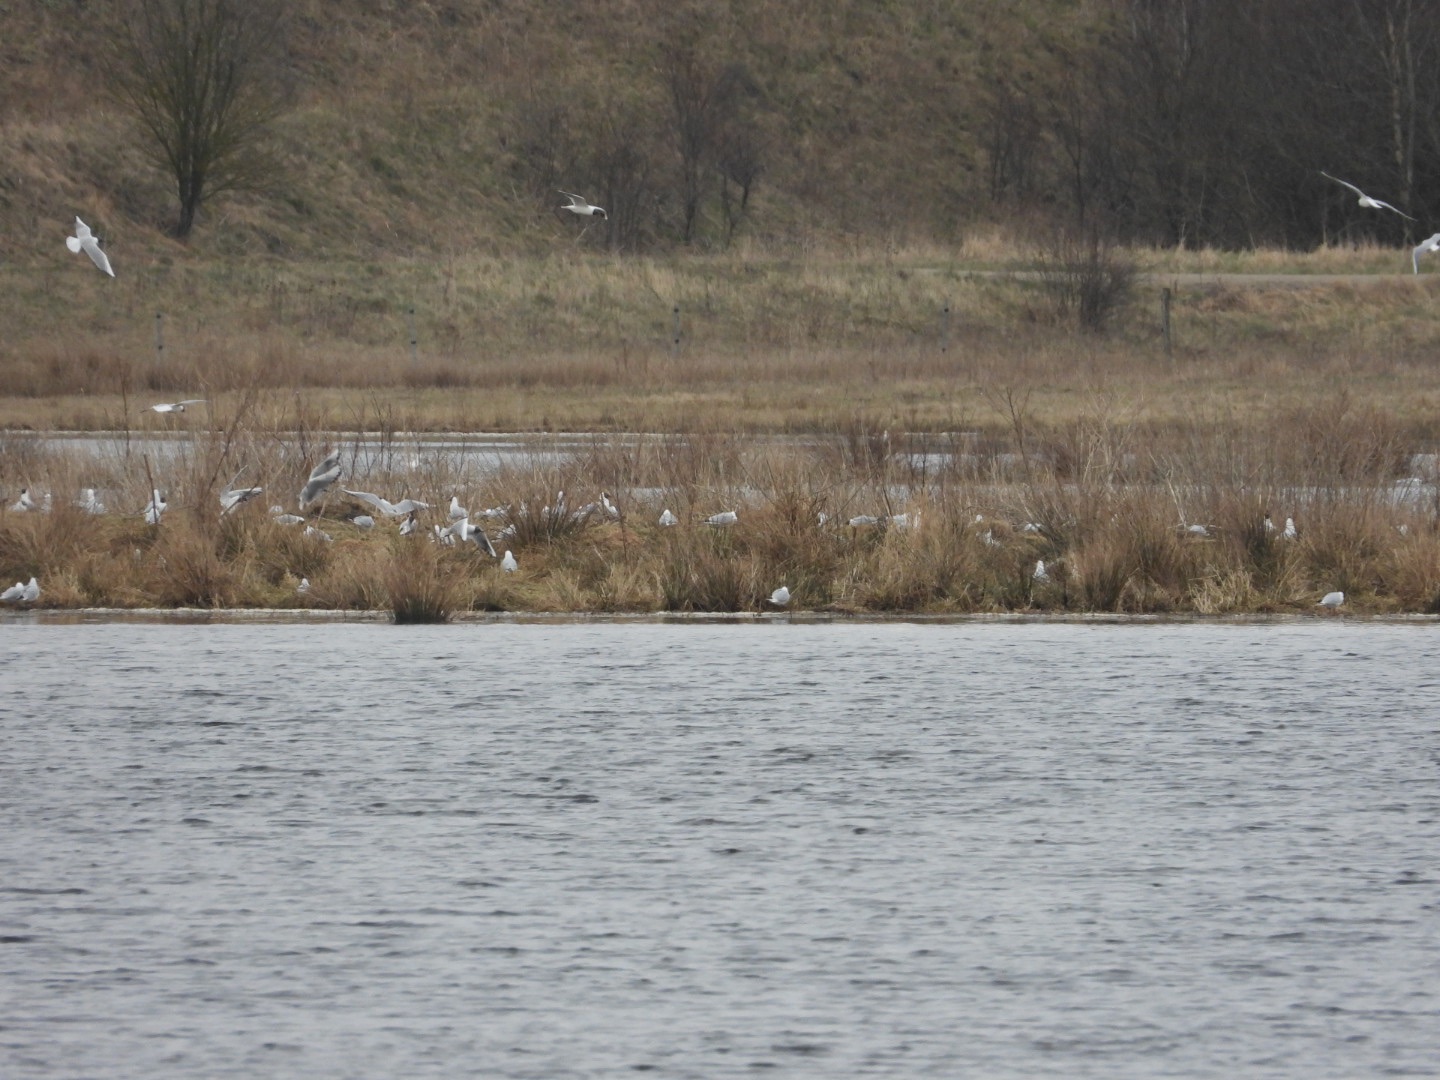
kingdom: Animalia
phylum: Chordata
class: Aves
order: Charadriiformes
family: Laridae
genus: Chroicocephalus
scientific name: Chroicocephalus ridibundus
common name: Hættemåge
